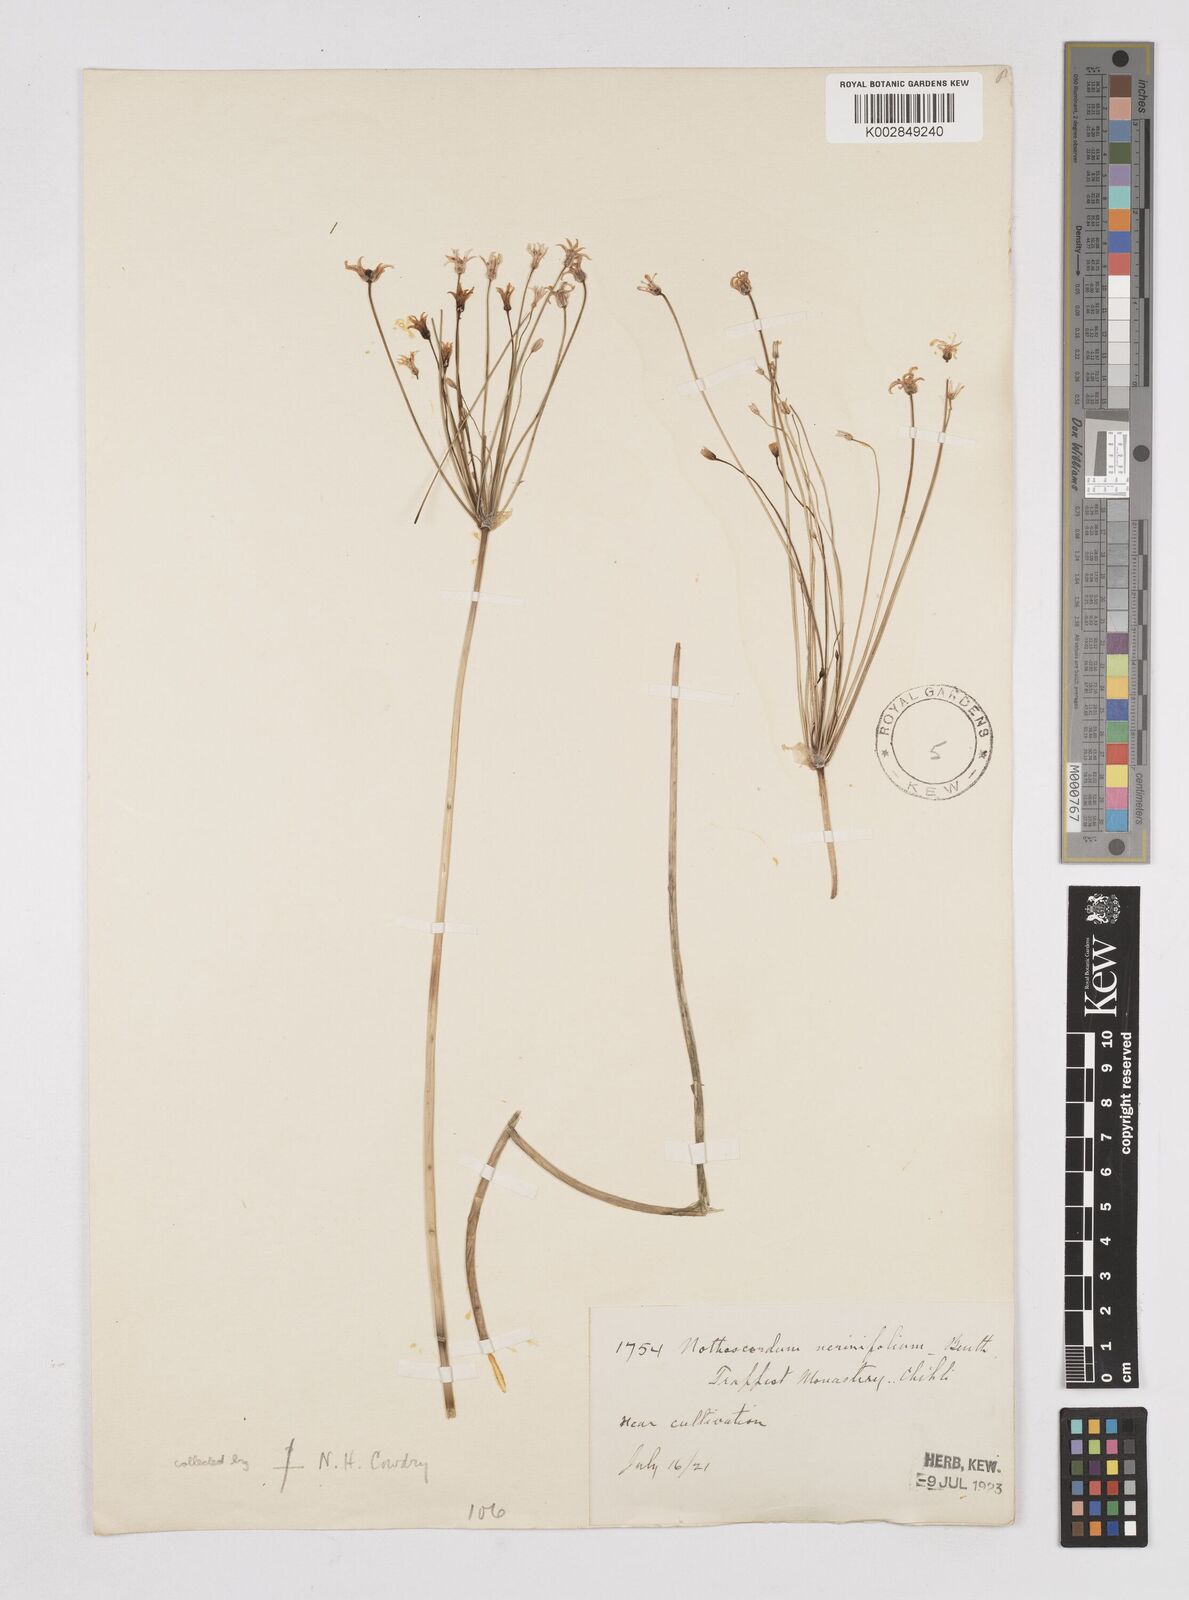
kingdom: Plantae
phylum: Tracheophyta
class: Liliopsida
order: Liliales
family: Liliaceae
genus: Agapanthus
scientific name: Agapanthus
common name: Agapanthus
